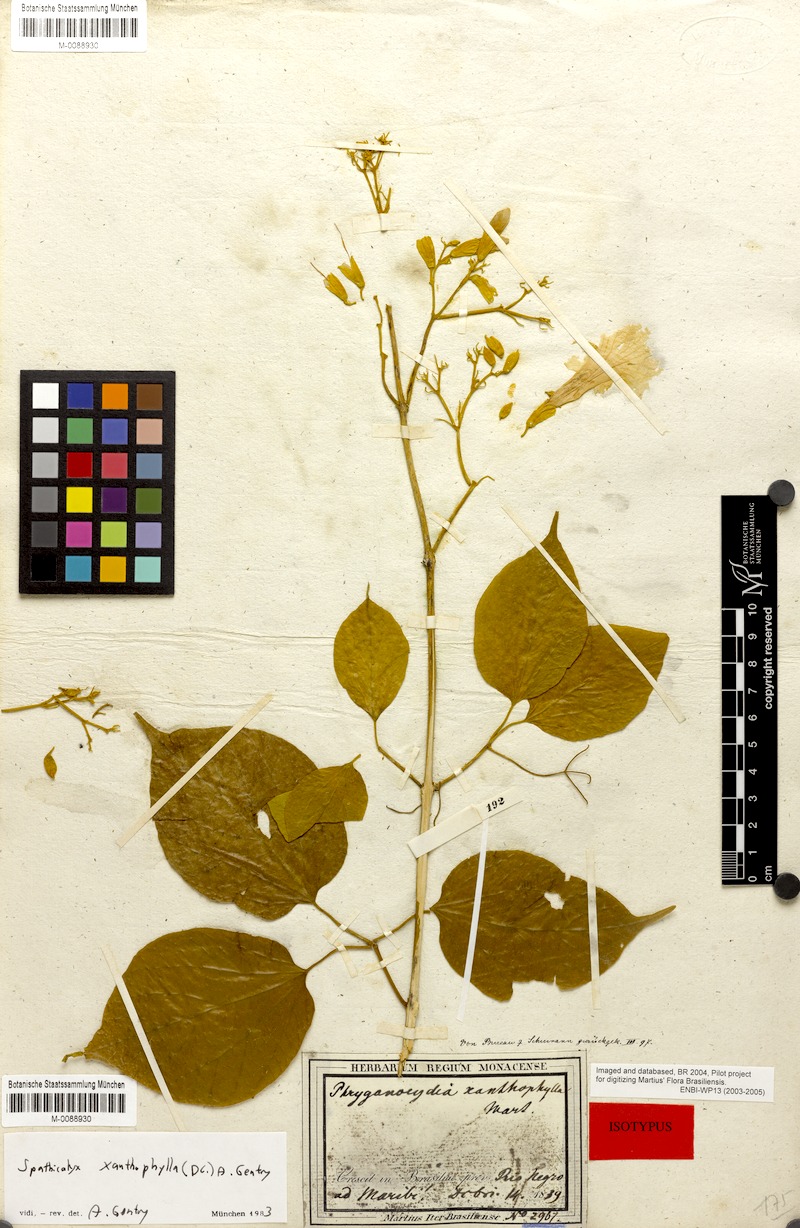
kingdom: Plantae
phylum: Tracheophyta
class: Magnoliopsida
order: Lamiales
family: Bignoniaceae
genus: Tanaecium
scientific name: Tanaecium xanthophyllum
